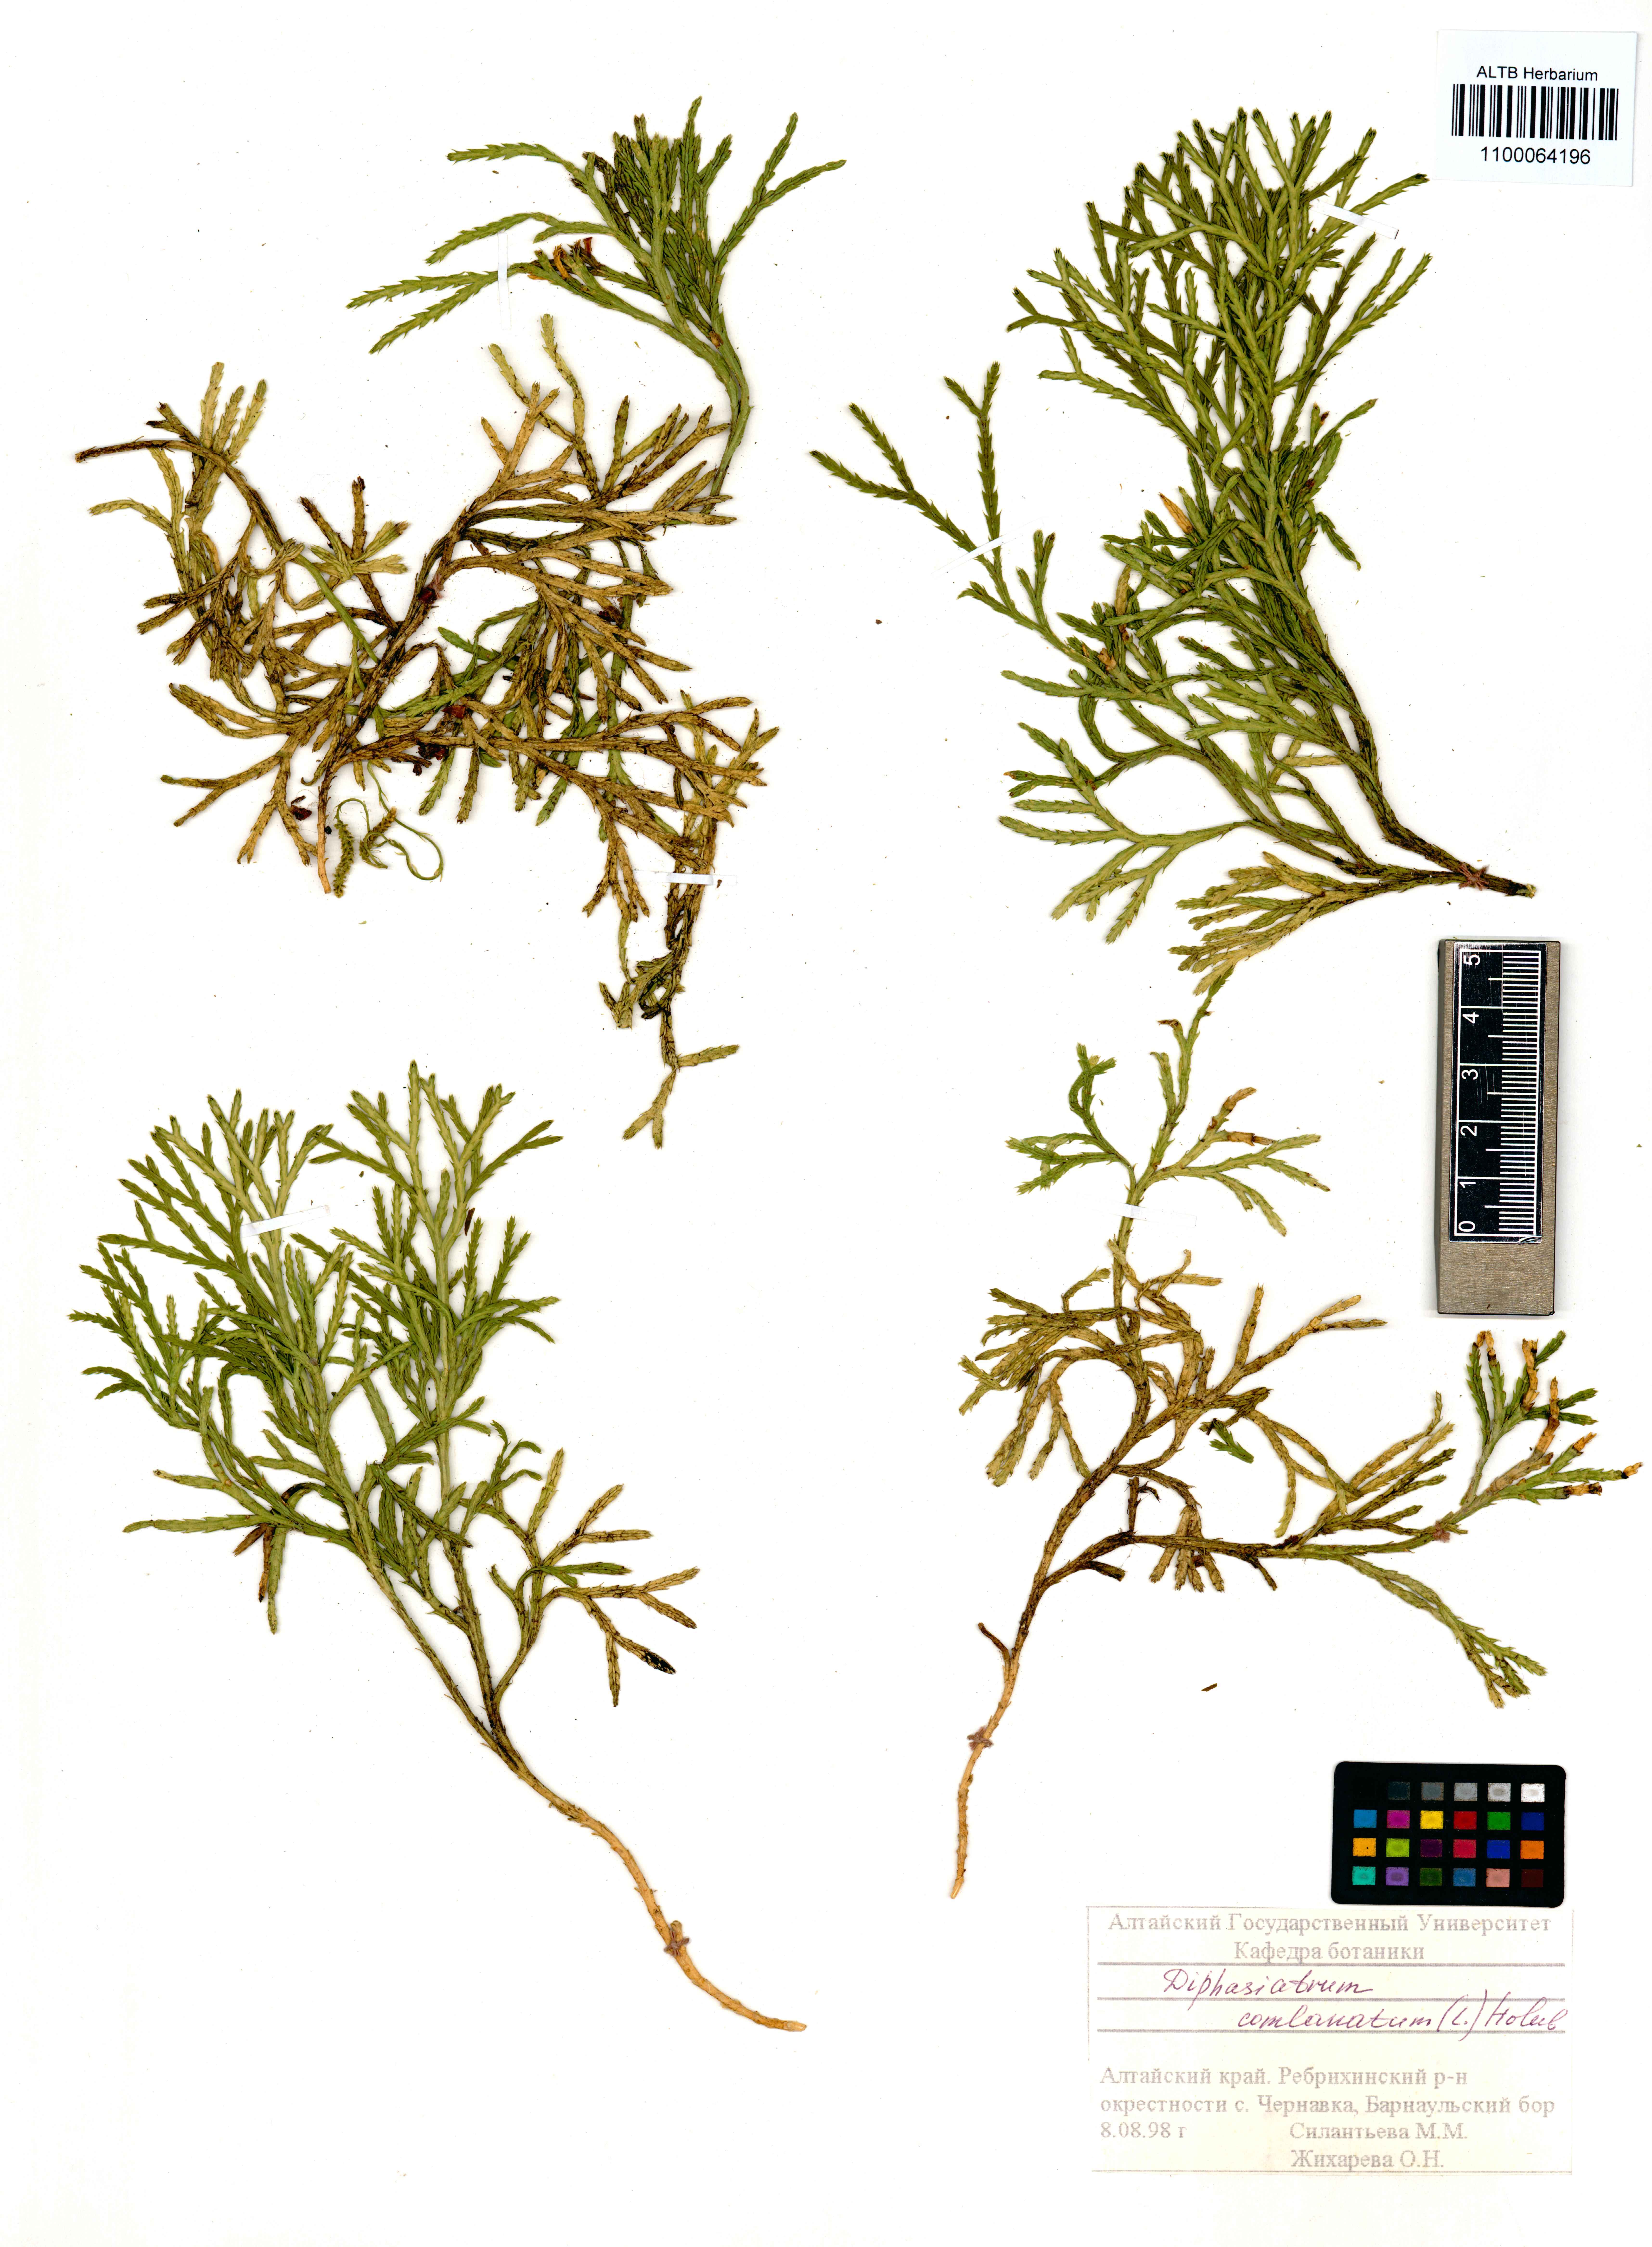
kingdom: Plantae
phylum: Tracheophyta
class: Lycopodiopsida
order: Lycopodiales
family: Lycopodiaceae
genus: Diphasiastrum
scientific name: Diphasiastrum complanatum
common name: Northern running-pine
